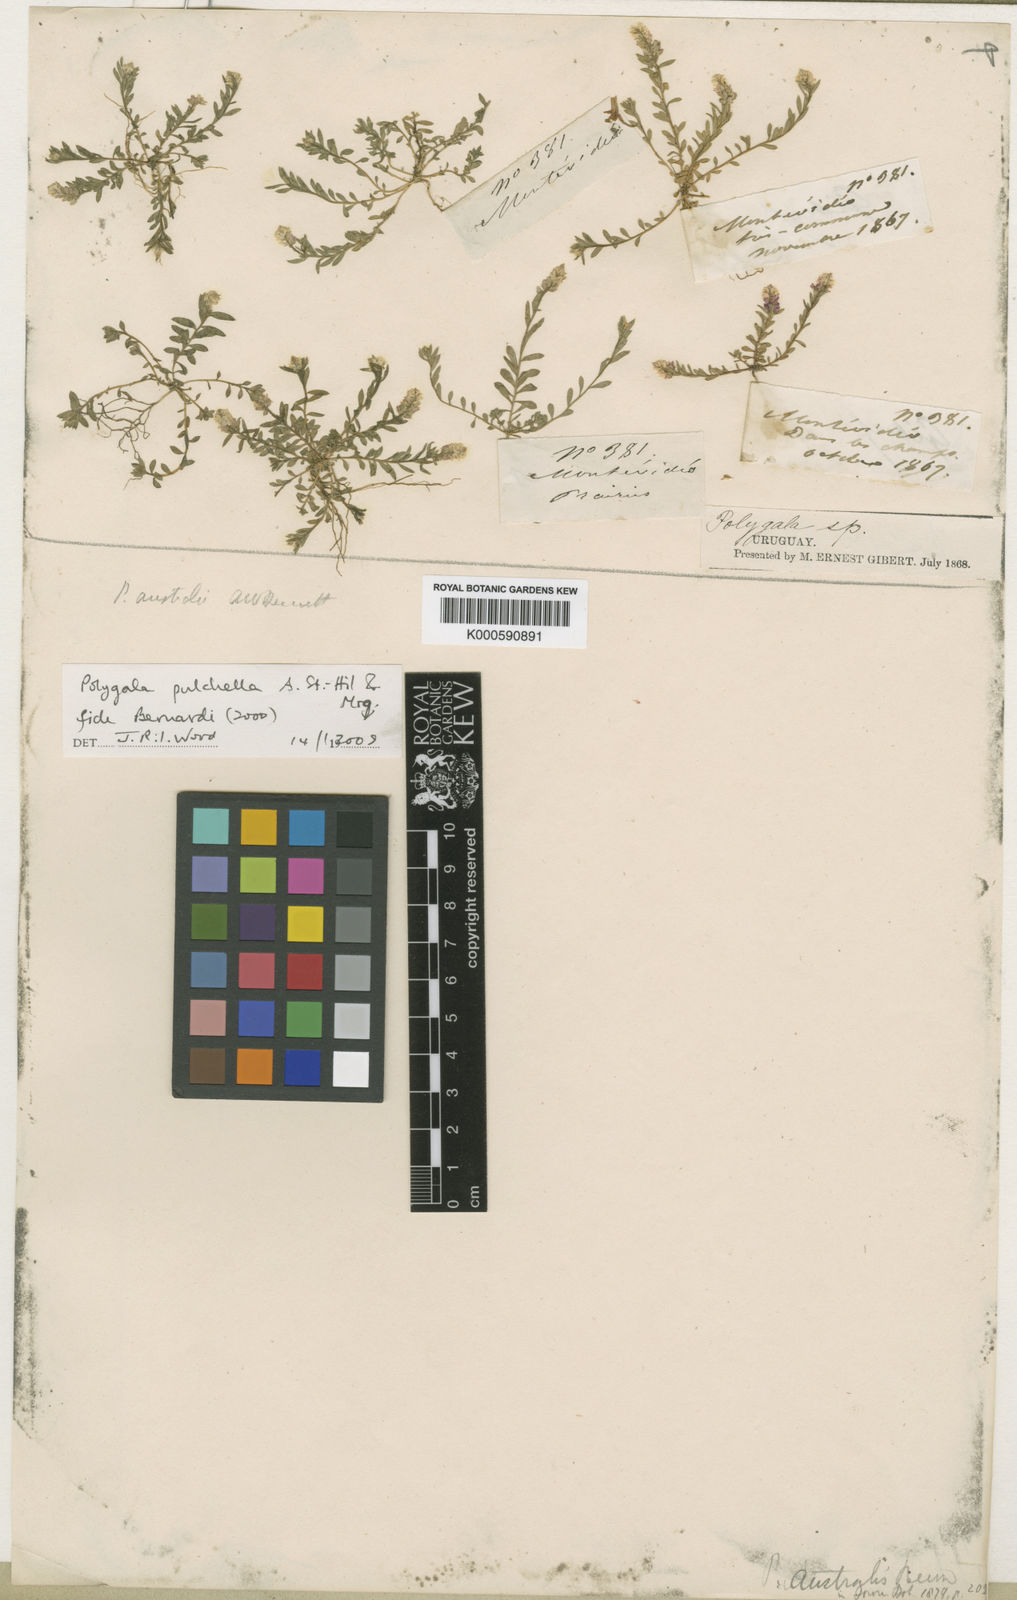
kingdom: Plantae
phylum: Tracheophyta
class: Magnoliopsida
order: Fabales
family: Polygalaceae
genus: Polygala
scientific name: Polygala pulchella
